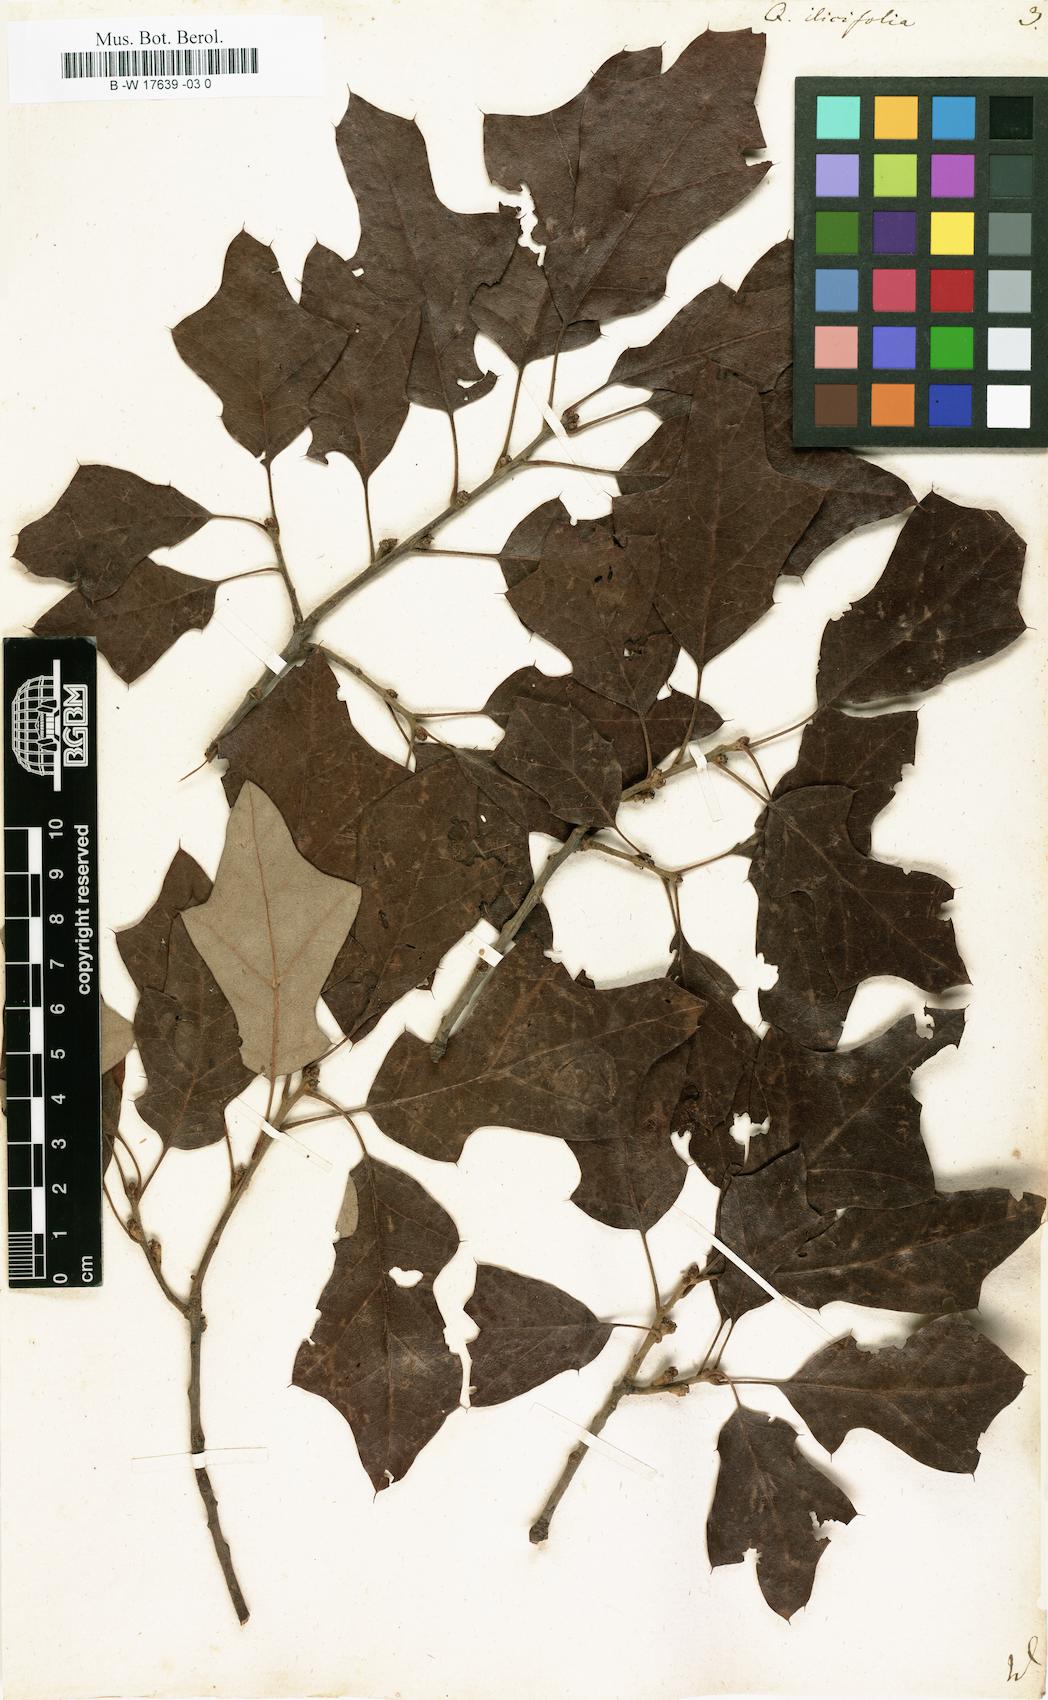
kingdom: Plantae
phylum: Tracheophyta
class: Magnoliopsida
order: Fagales
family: Fagaceae
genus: Quercus
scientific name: Quercus ilicifolia
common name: Bear oak
